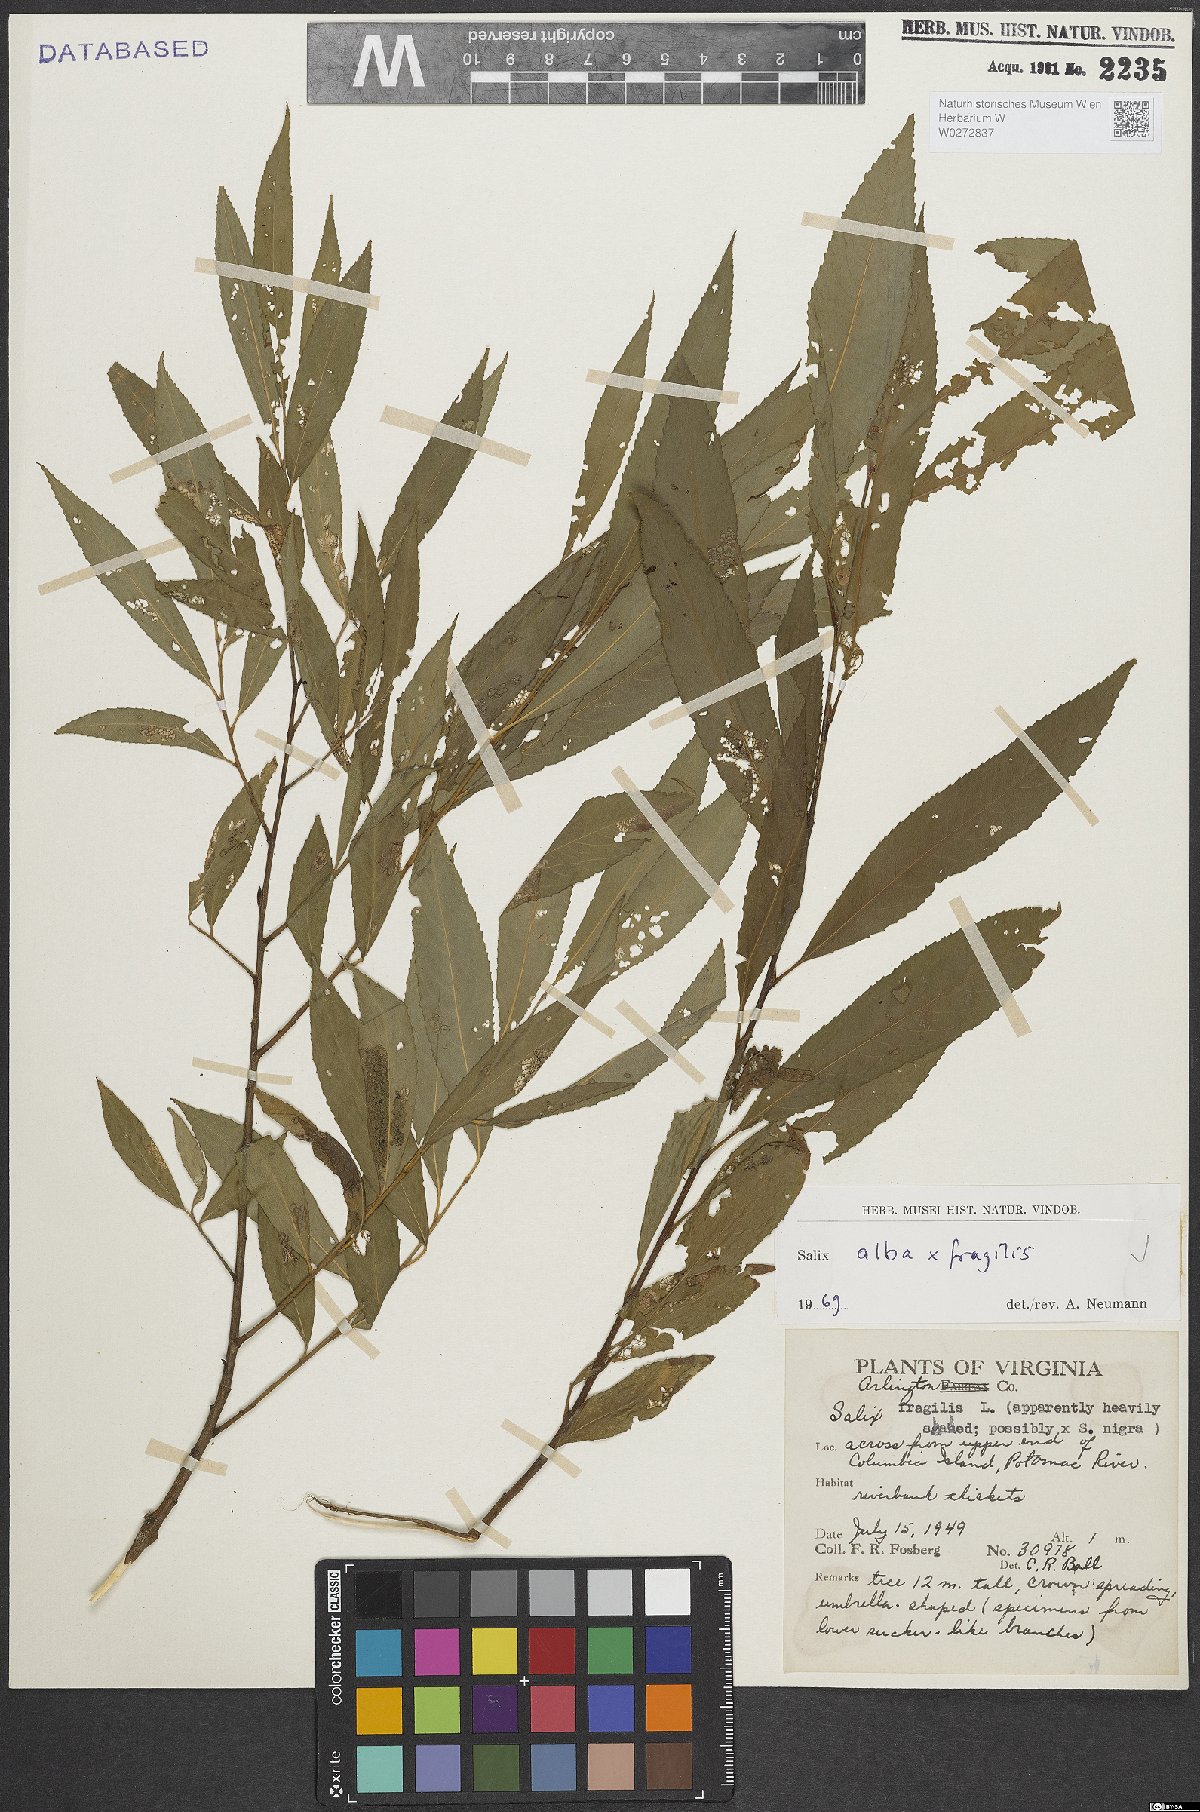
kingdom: Plantae
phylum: Tracheophyta
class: Magnoliopsida
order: Malpighiales
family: Salicaceae
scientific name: Salicaceae
